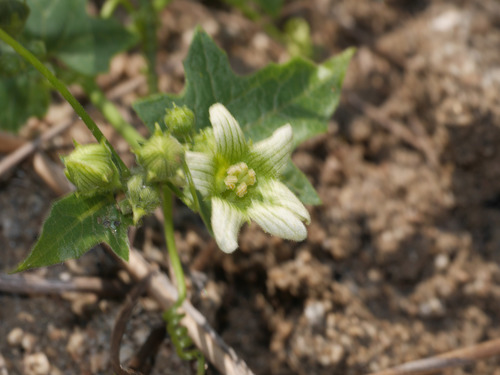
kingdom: Plantae
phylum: Tracheophyta
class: Magnoliopsida
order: Cucurbitales
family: Cucurbitaceae
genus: Bryonia
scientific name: Bryonia cretica
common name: Cretan bryony
